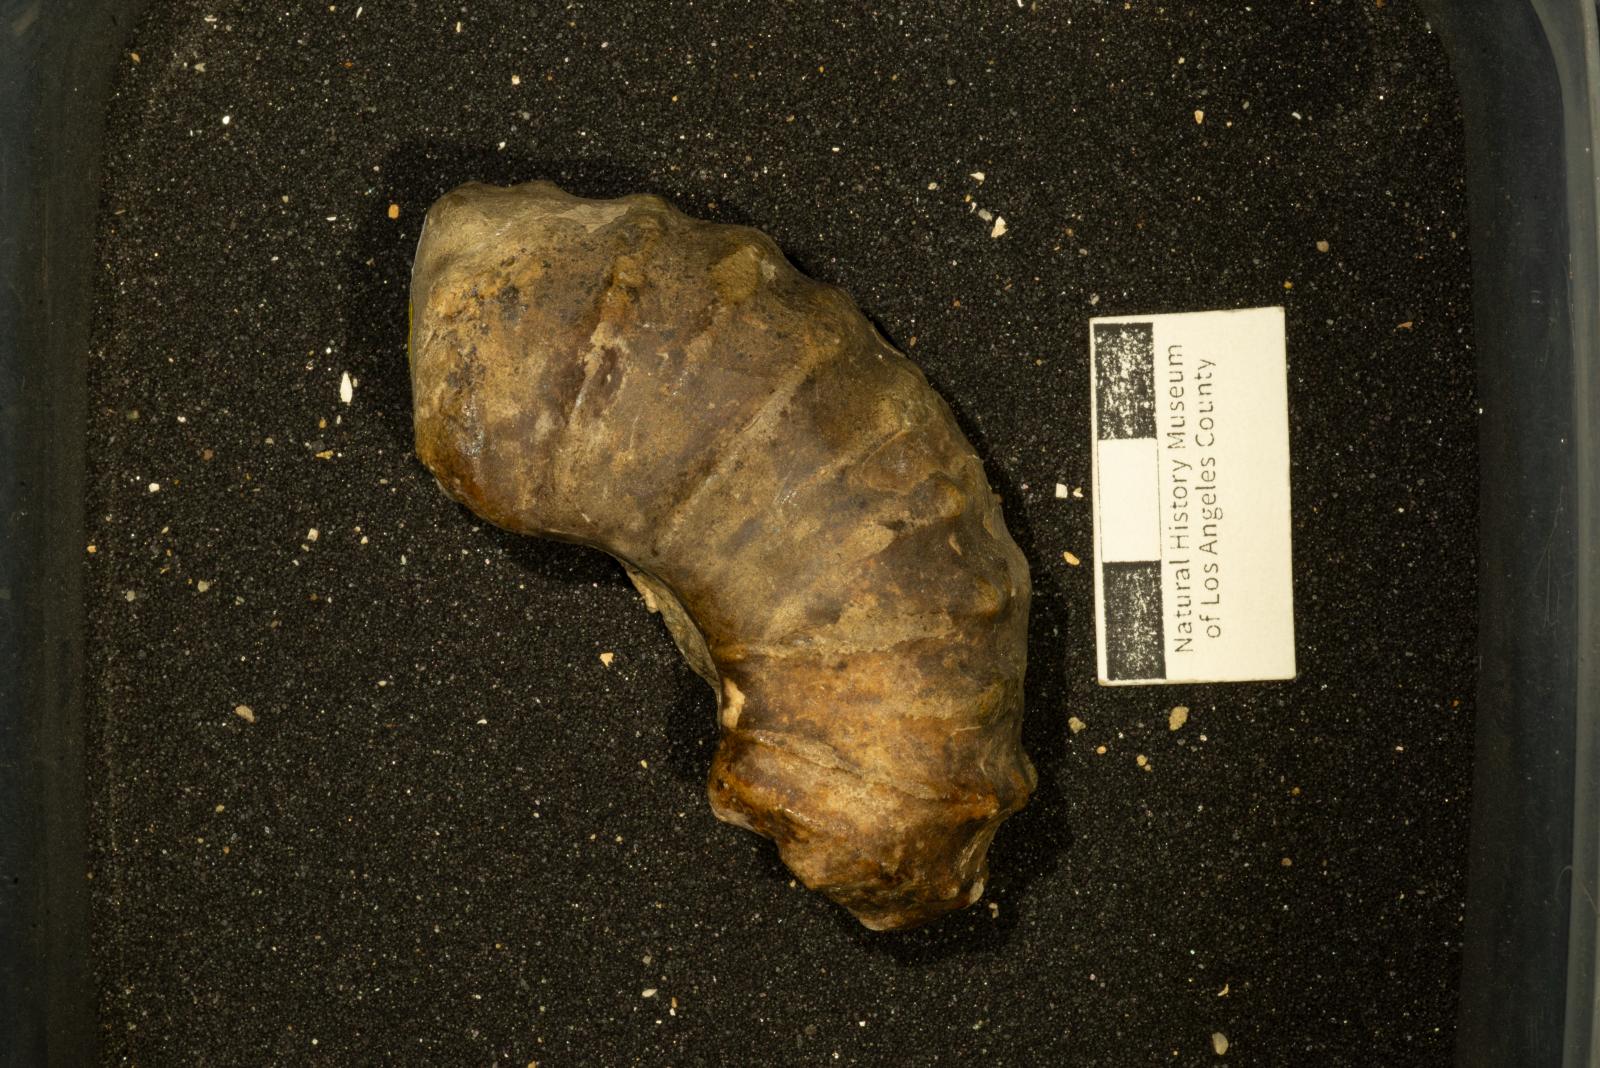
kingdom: Animalia
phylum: Mollusca
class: Cephalopoda
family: Acanthoceratidae
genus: Romaniceras
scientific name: Romaniceras
